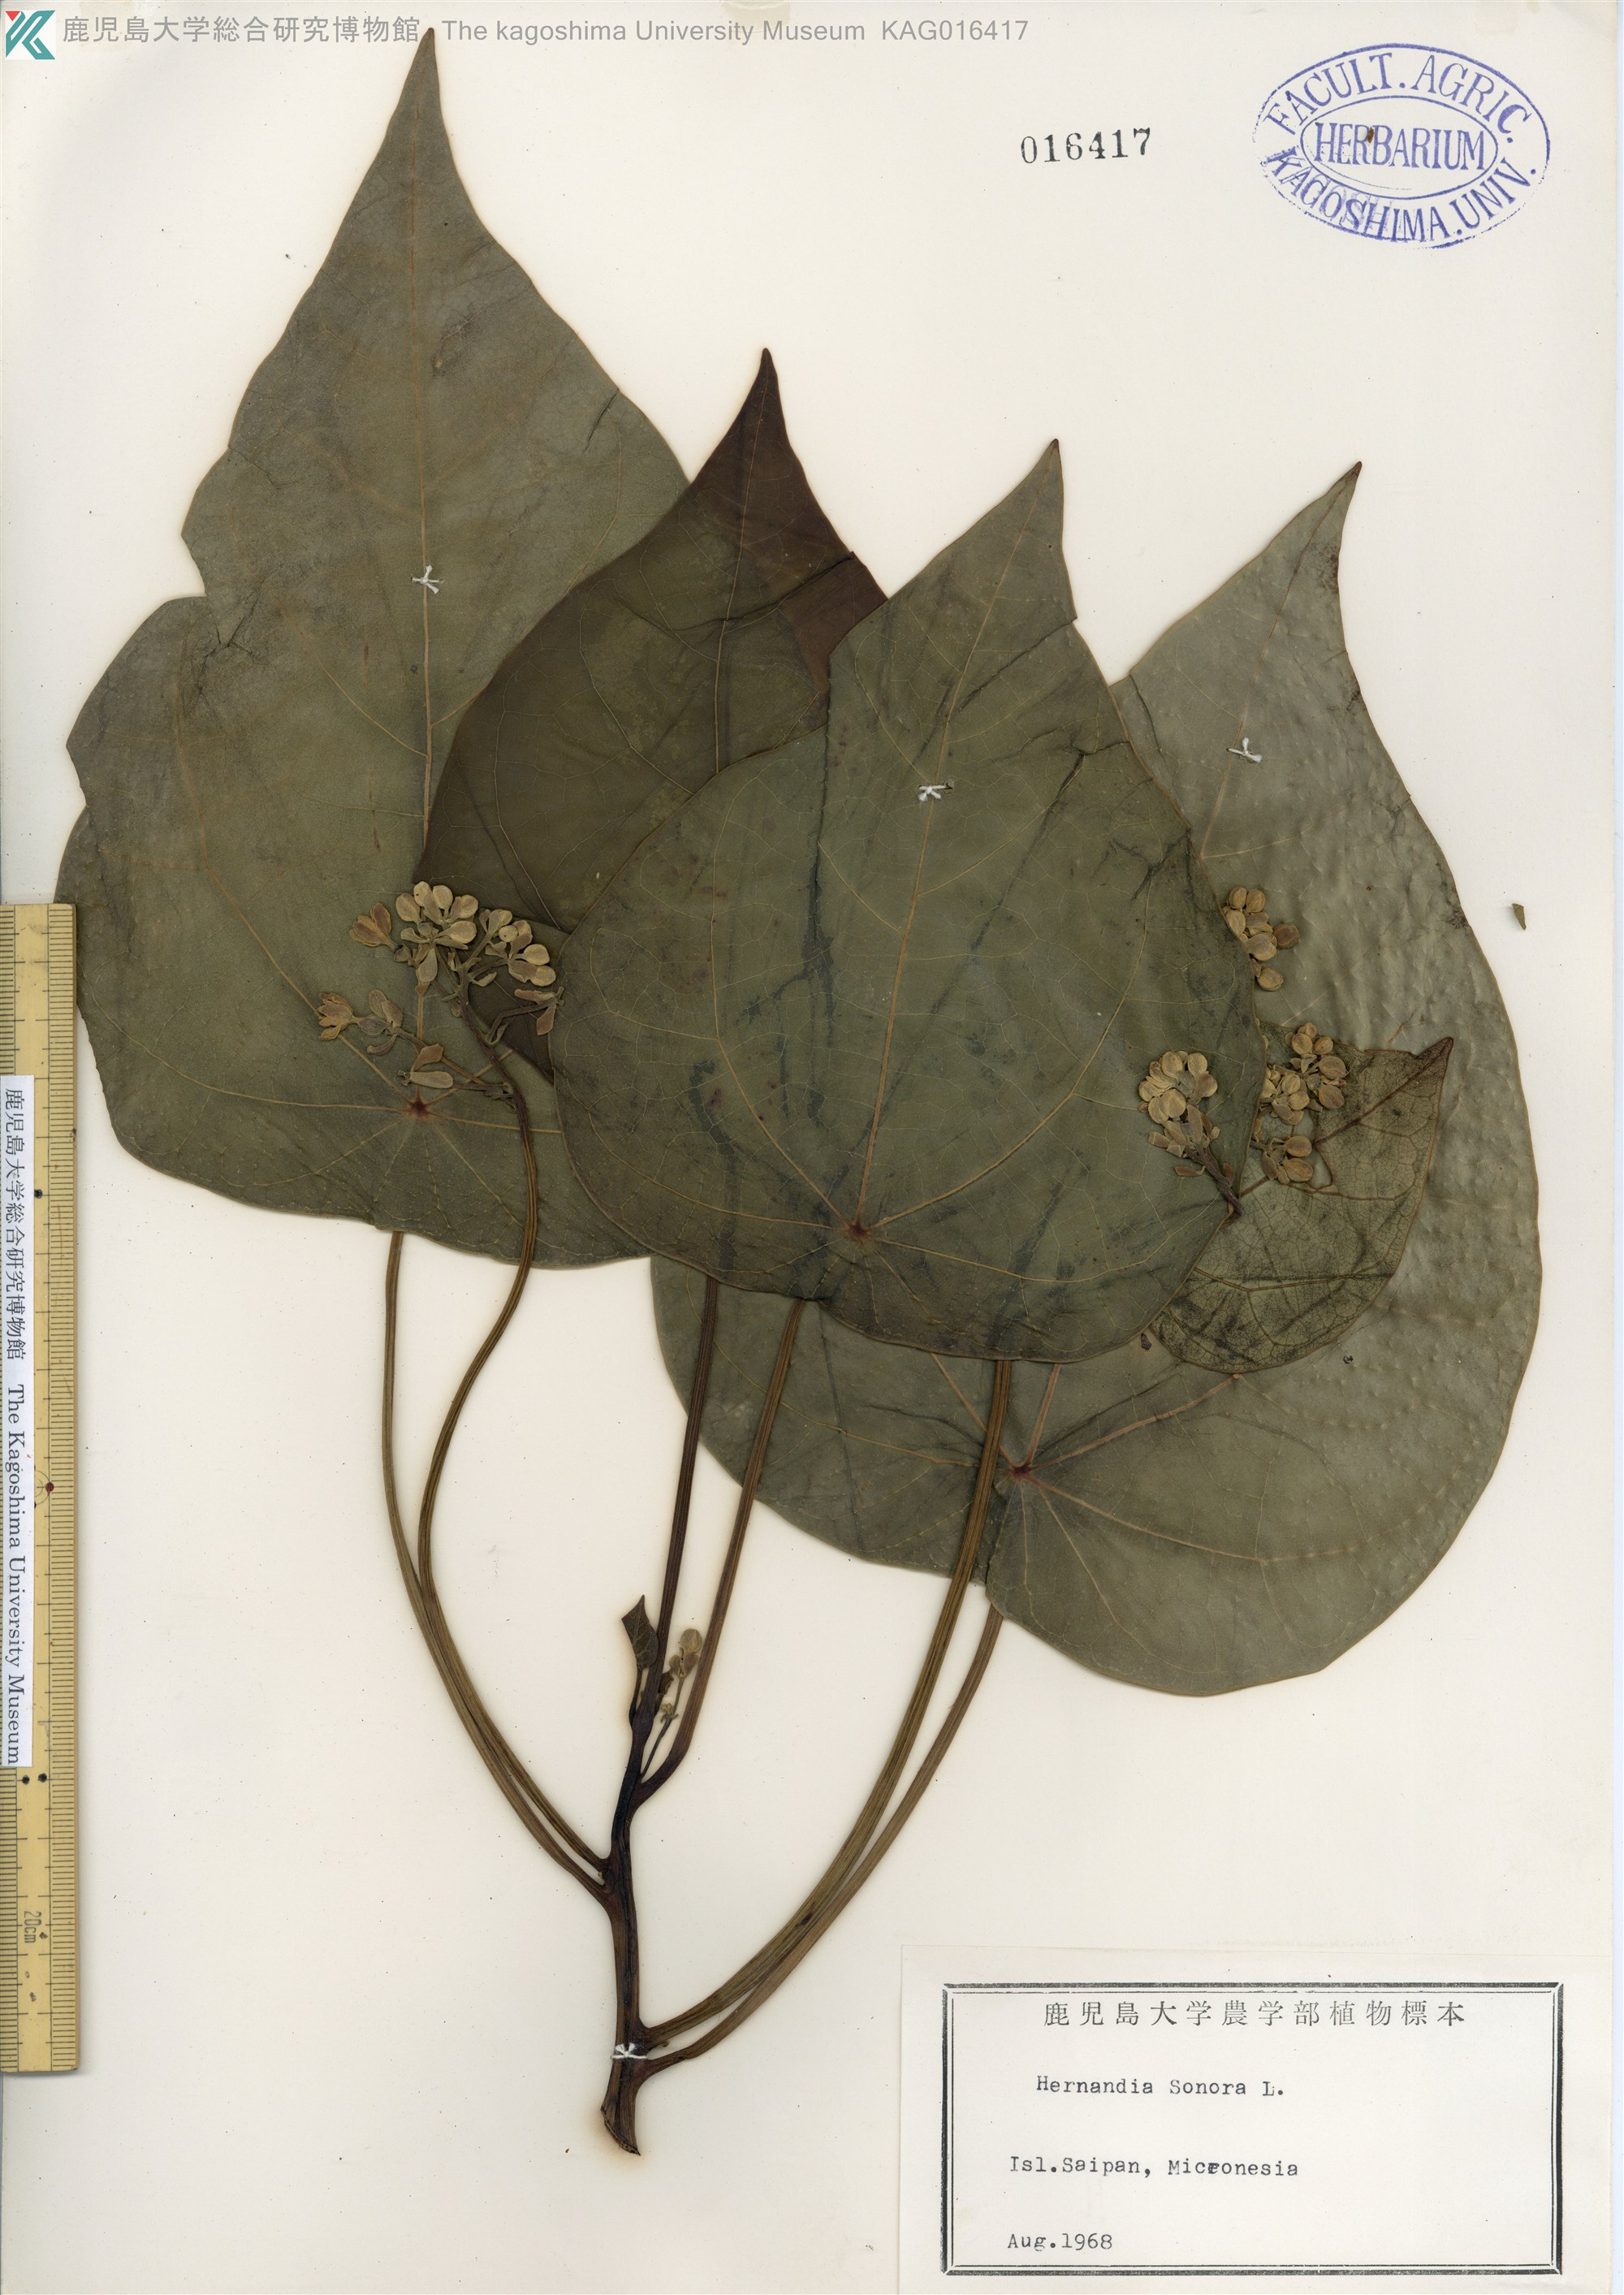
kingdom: Plantae
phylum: Tracheophyta
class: Magnoliopsida
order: Laurales
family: Hernandiaceae
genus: Hernandia
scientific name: Hernandia nymphaeifolia
